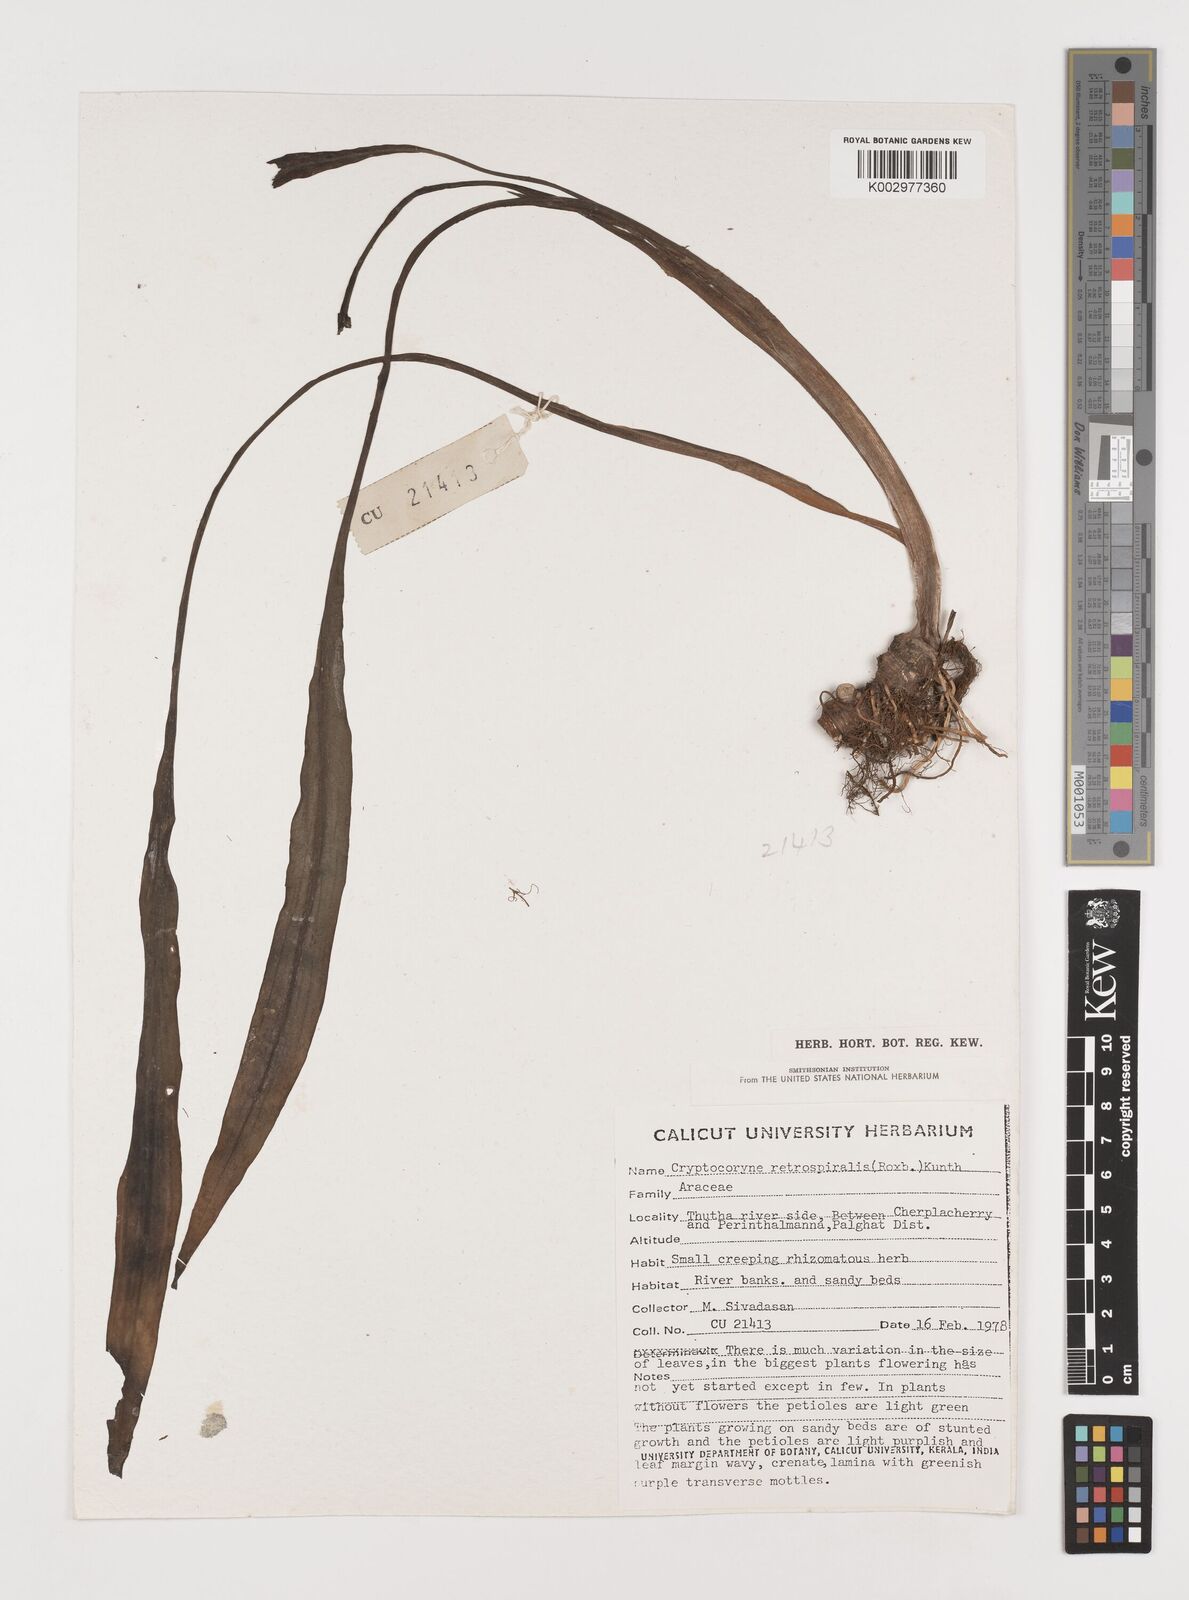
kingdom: Plantae
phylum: Tracheophyta
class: Liliopsida
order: Alismatales
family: Araceae
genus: Cryptocoryne
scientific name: Cryptocoryne retrospiralis
